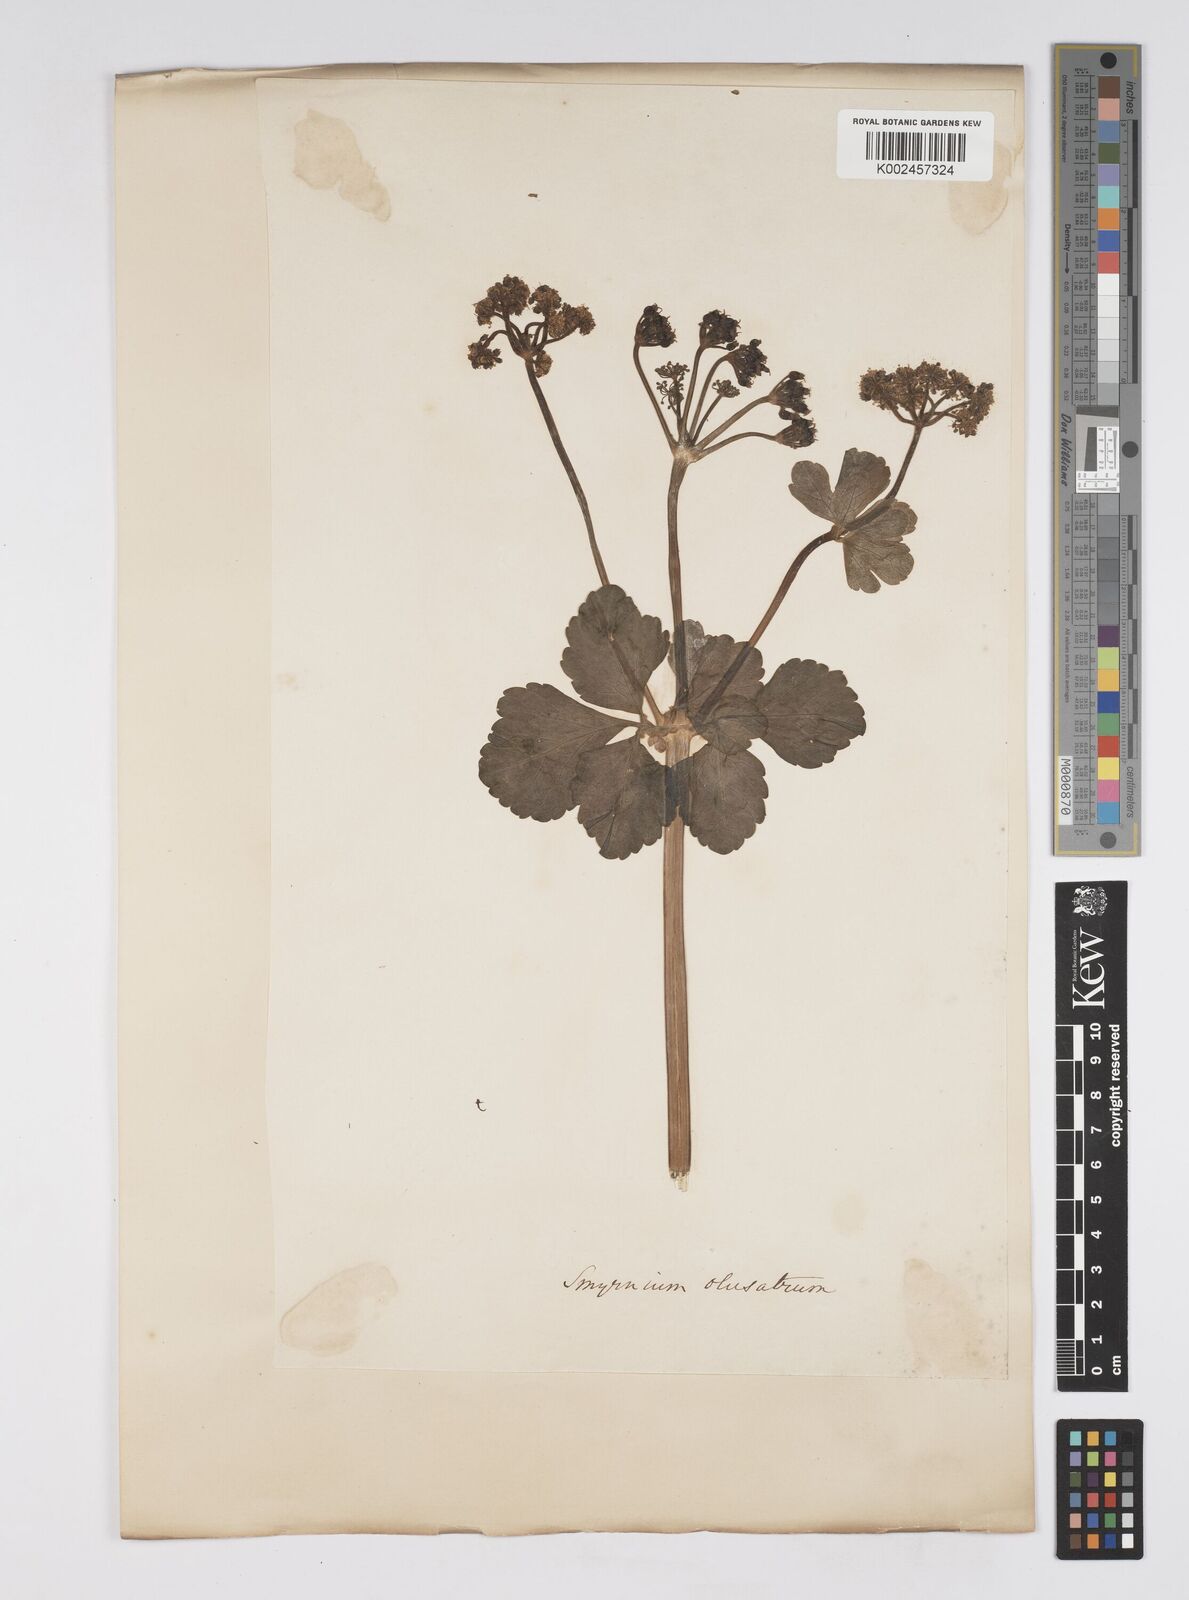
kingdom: Plantae
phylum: Tracheophyta
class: Magnoliopsida
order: Apiales
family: Apiaceae
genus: Smyrnium
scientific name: Smyrnium olusatrum
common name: Alexanders
